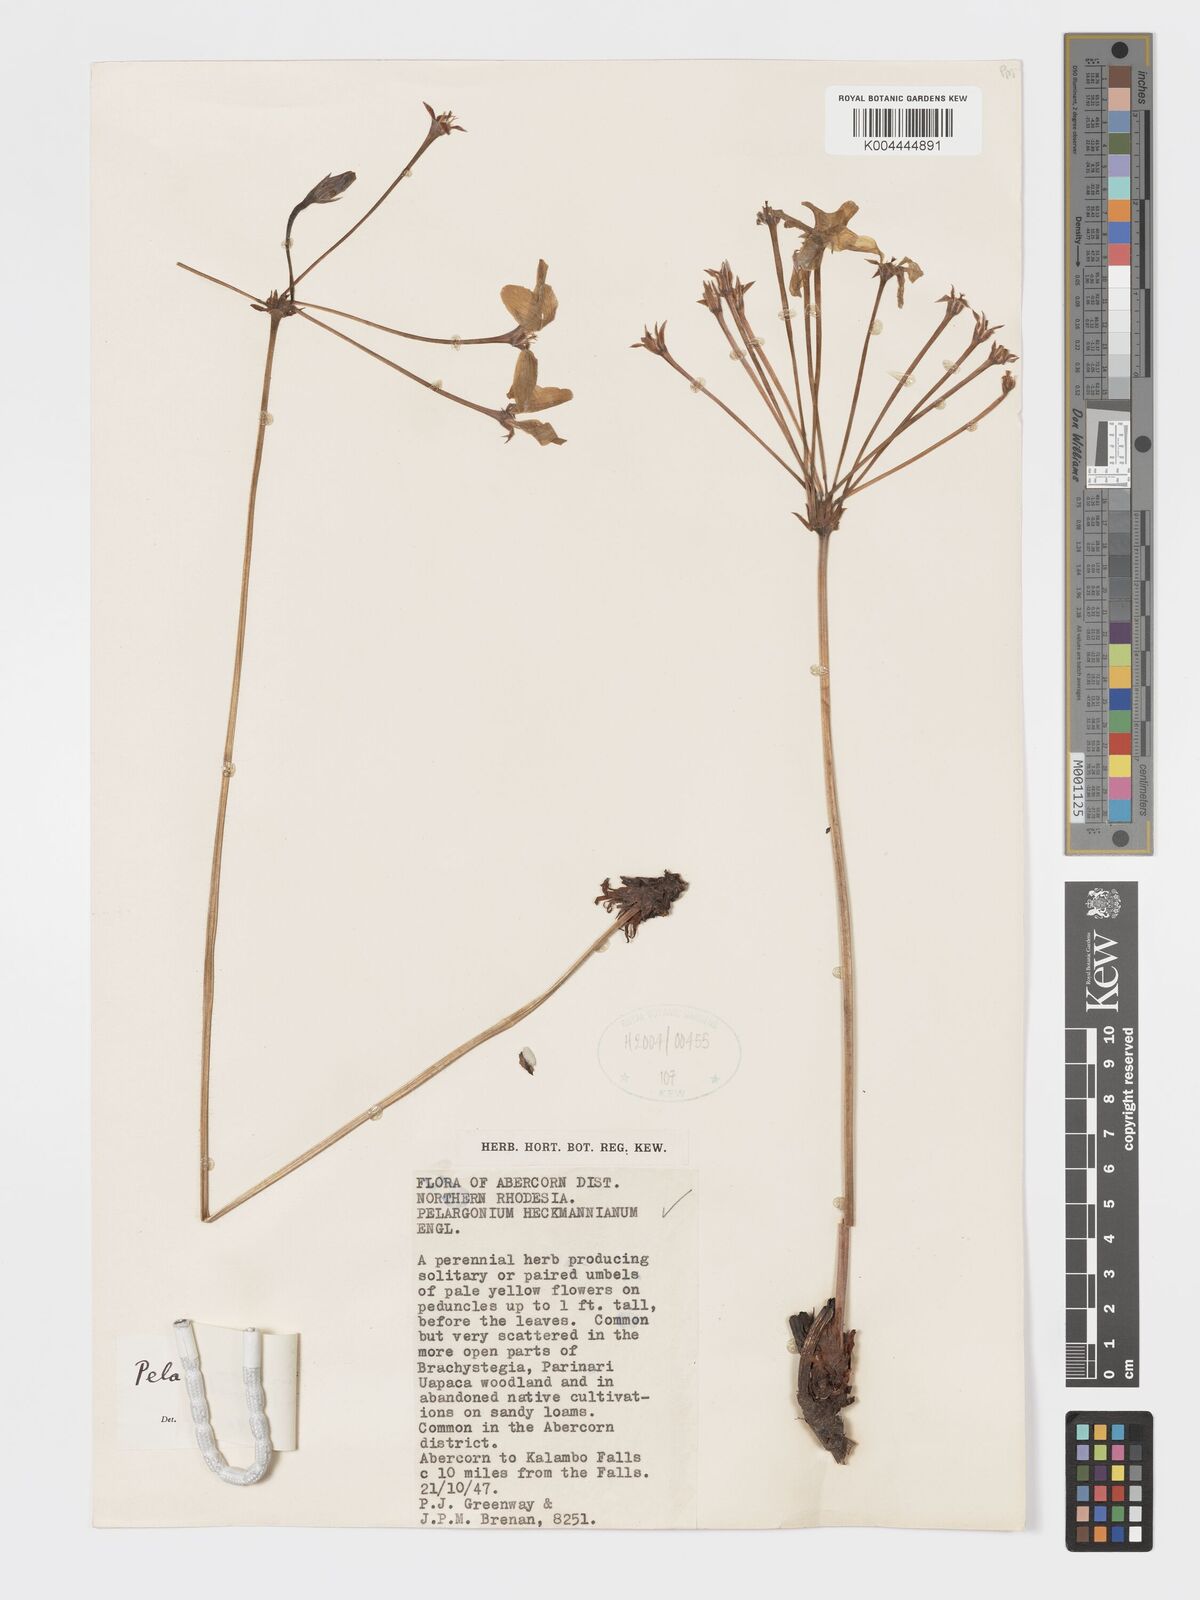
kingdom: Plantae
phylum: Tracheophyta
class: Magnoliopsida
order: Geraniales
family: Geraniaceae
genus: Pelargonium
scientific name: Pelargonium luridum
